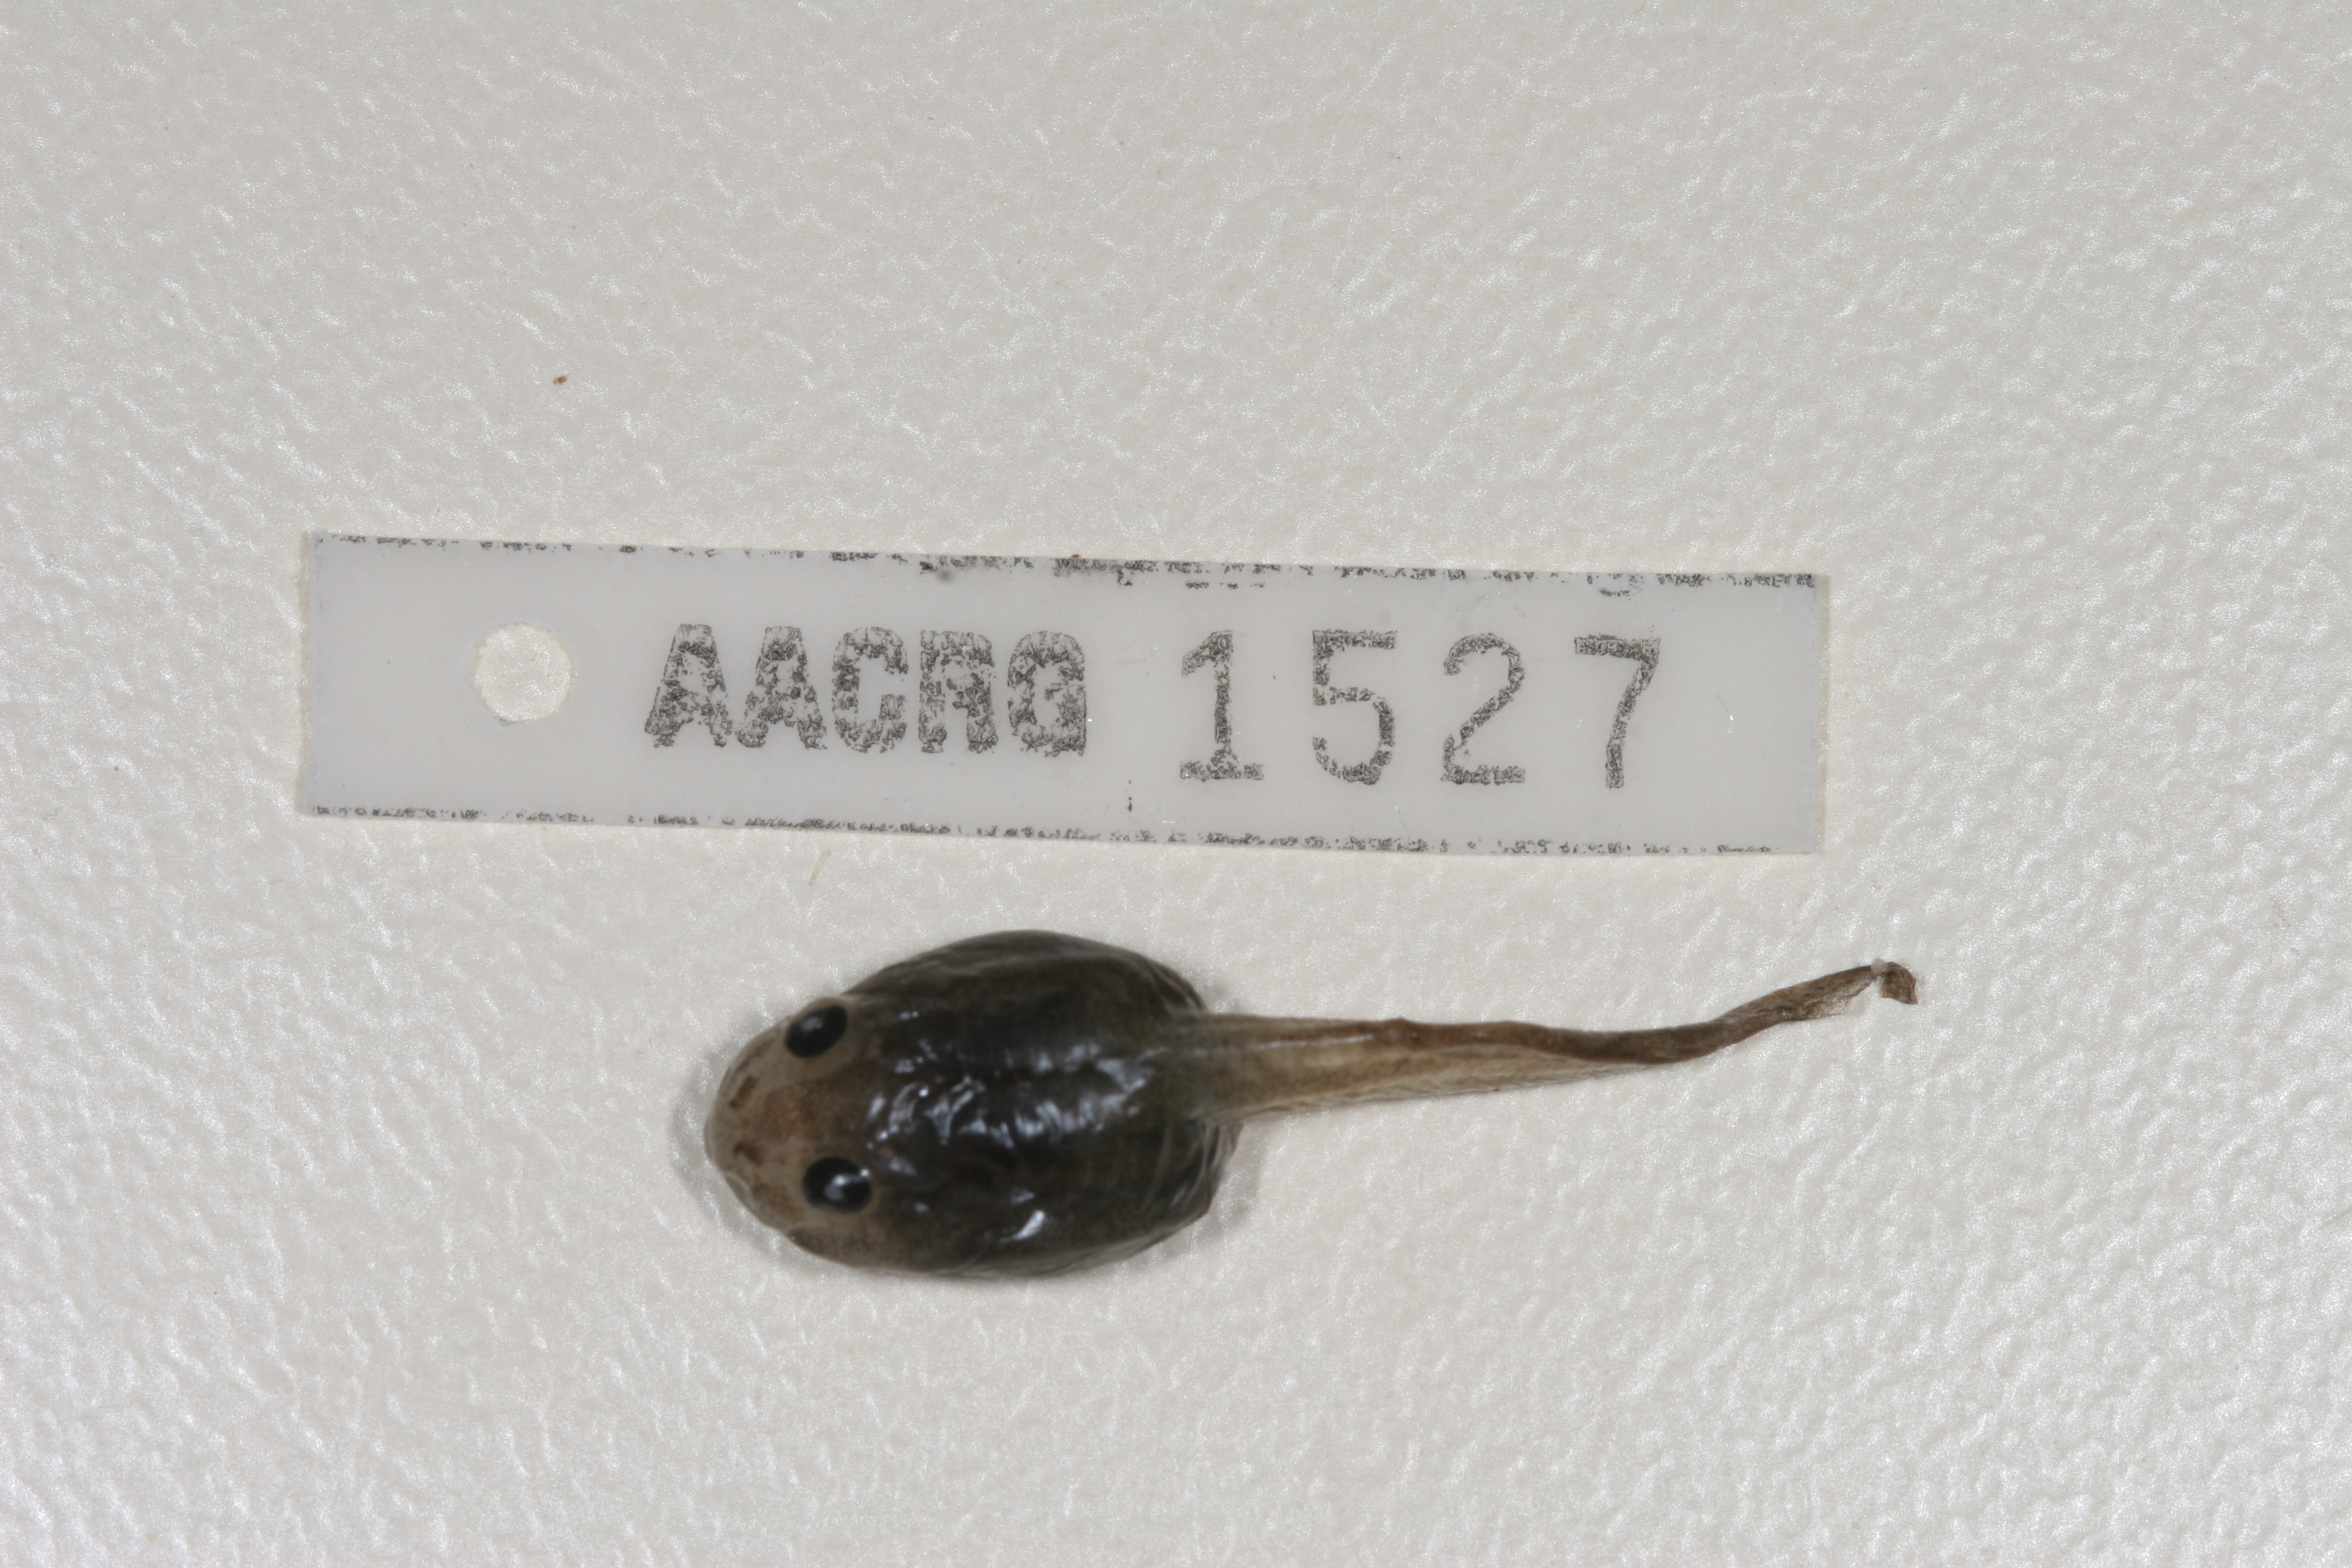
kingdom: Animalia
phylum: Chordata
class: Amphibia
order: Anura
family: Rhacophoridae
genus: Chiromantis
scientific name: Chiromantis xerampelina
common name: African gray treefrog
